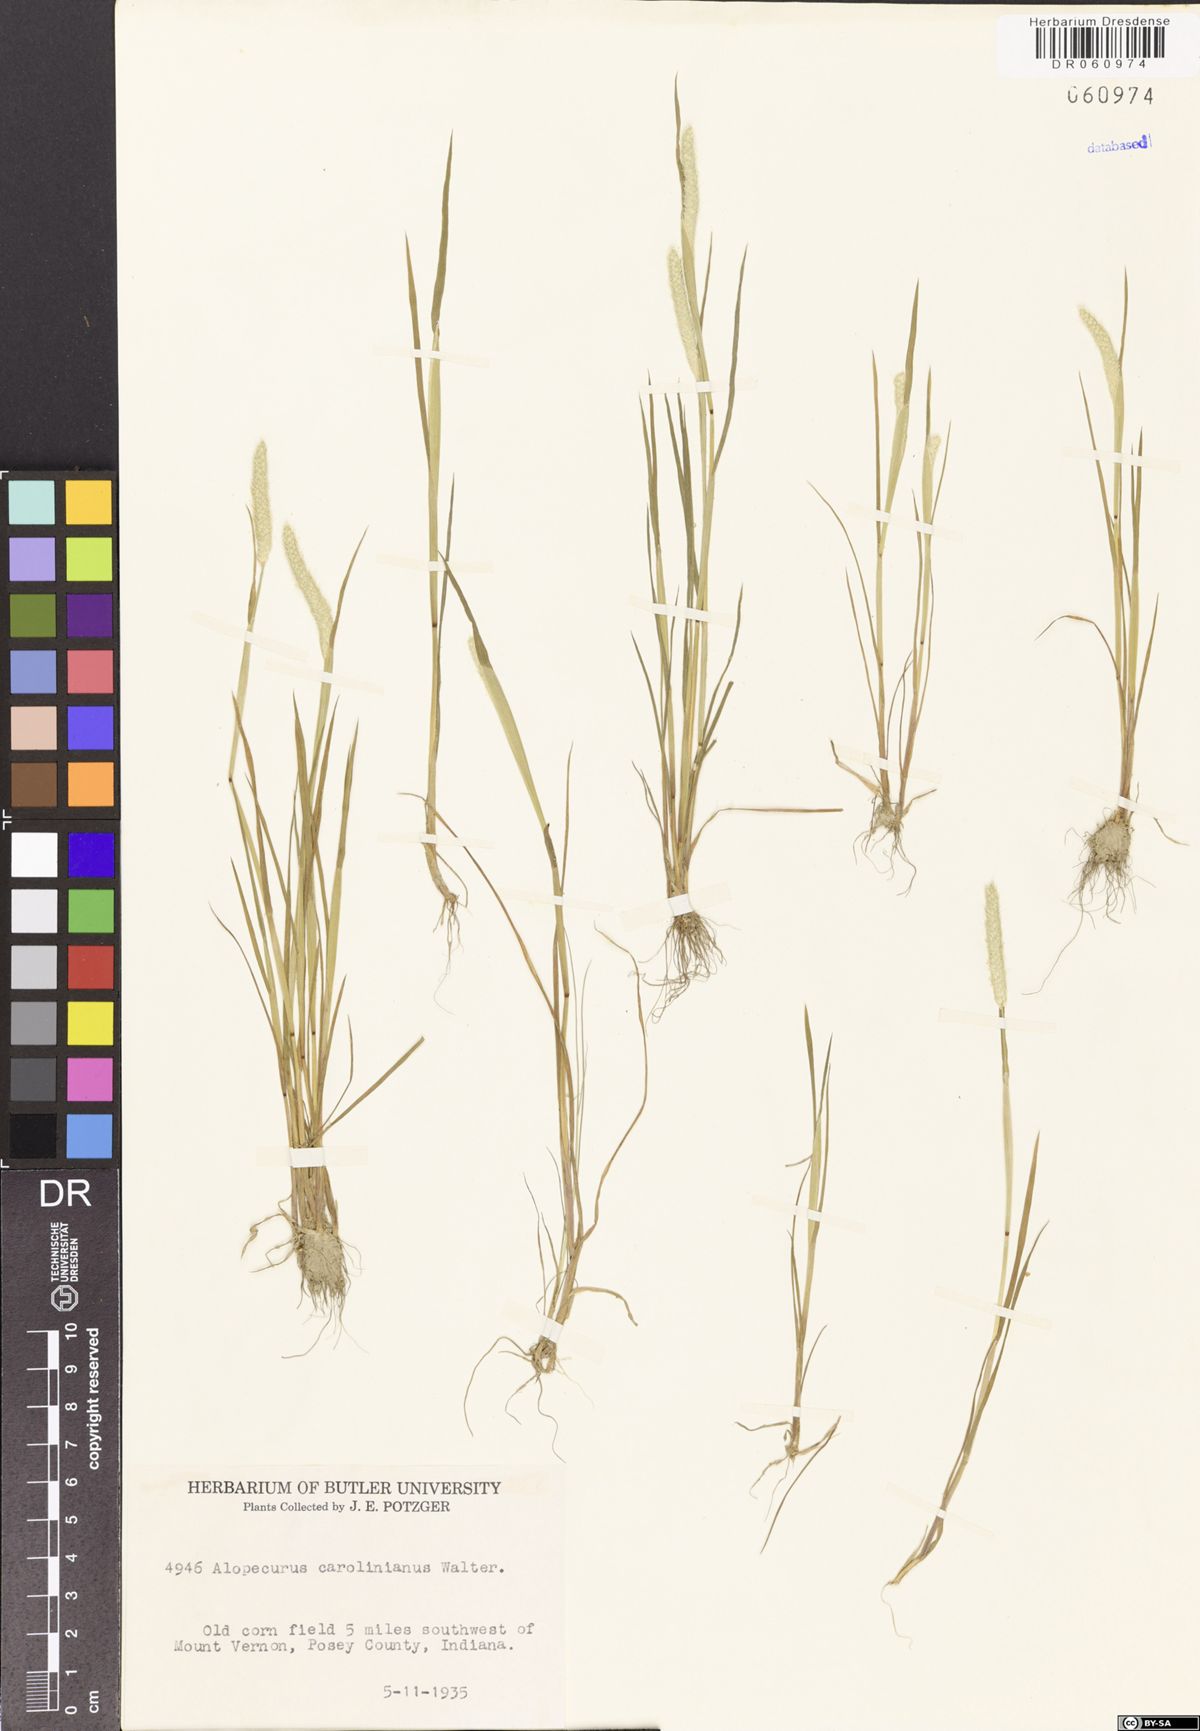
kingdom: Plantae
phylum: Tracheophyta
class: Liliopsida
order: Poales
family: Poaceae
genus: Alopecurus
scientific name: Alopecurus carolinianus
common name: Tufted foxtail
